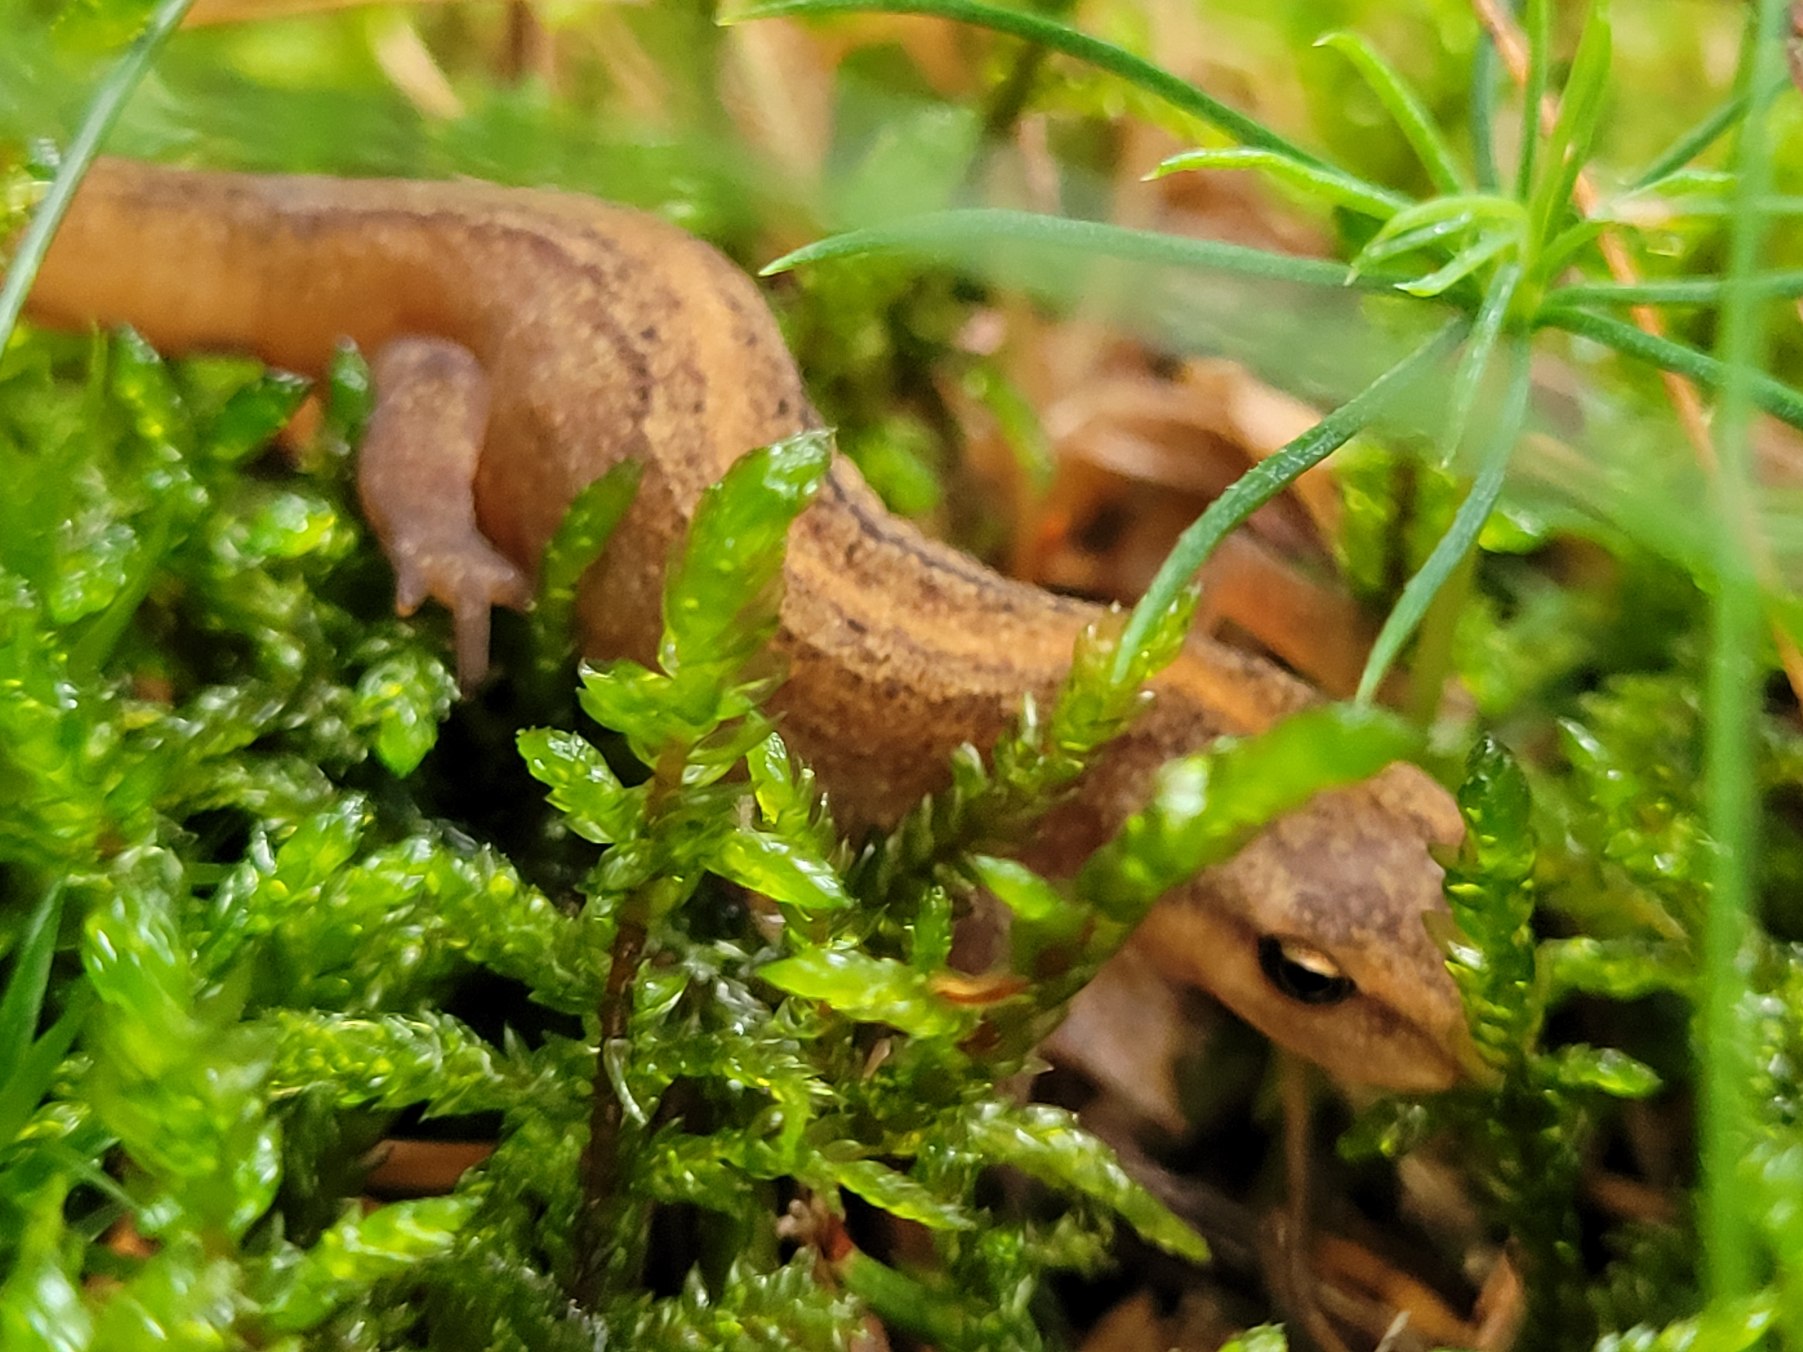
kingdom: Animalia
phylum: Chordata
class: Amphibia
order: Caudata
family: Salamandridae
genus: Lissotriton
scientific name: Lissotriton vulgaris
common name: Lille vandsalamander
